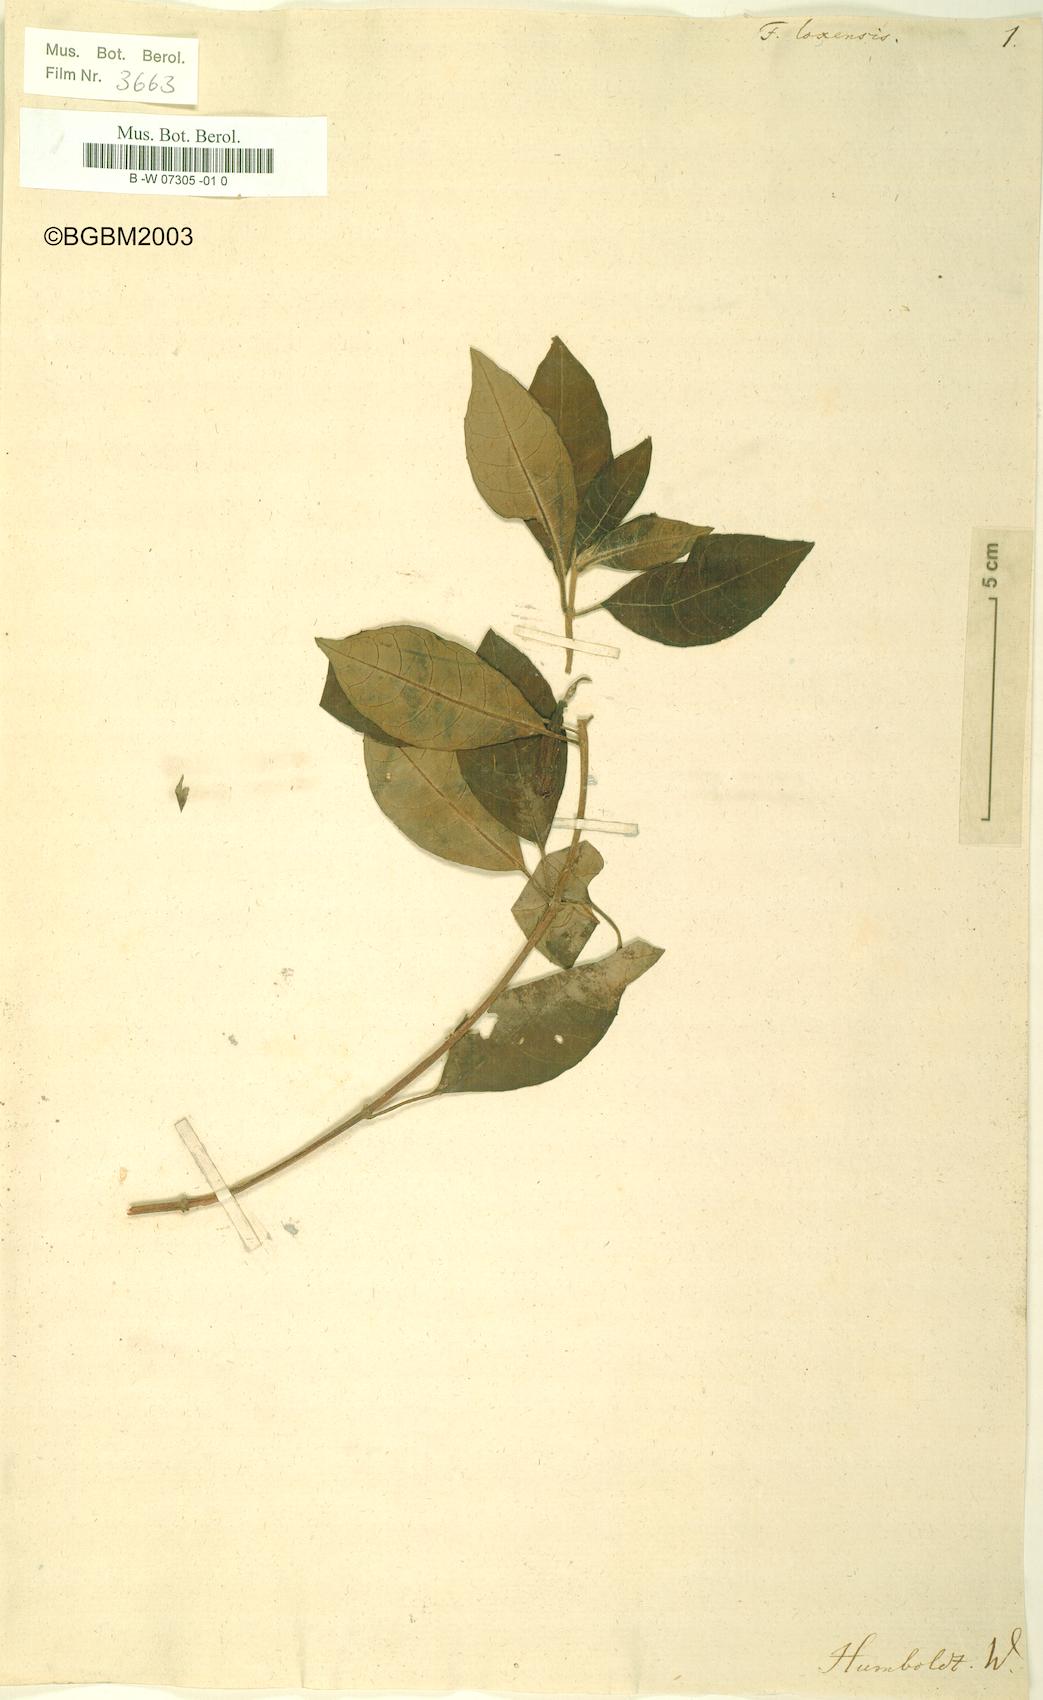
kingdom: Plantae
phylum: Tracheophyta
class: Magnoliopsida
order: Myrtales
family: Onagraceae
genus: Fuchsia
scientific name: Fuchsia loxensis
